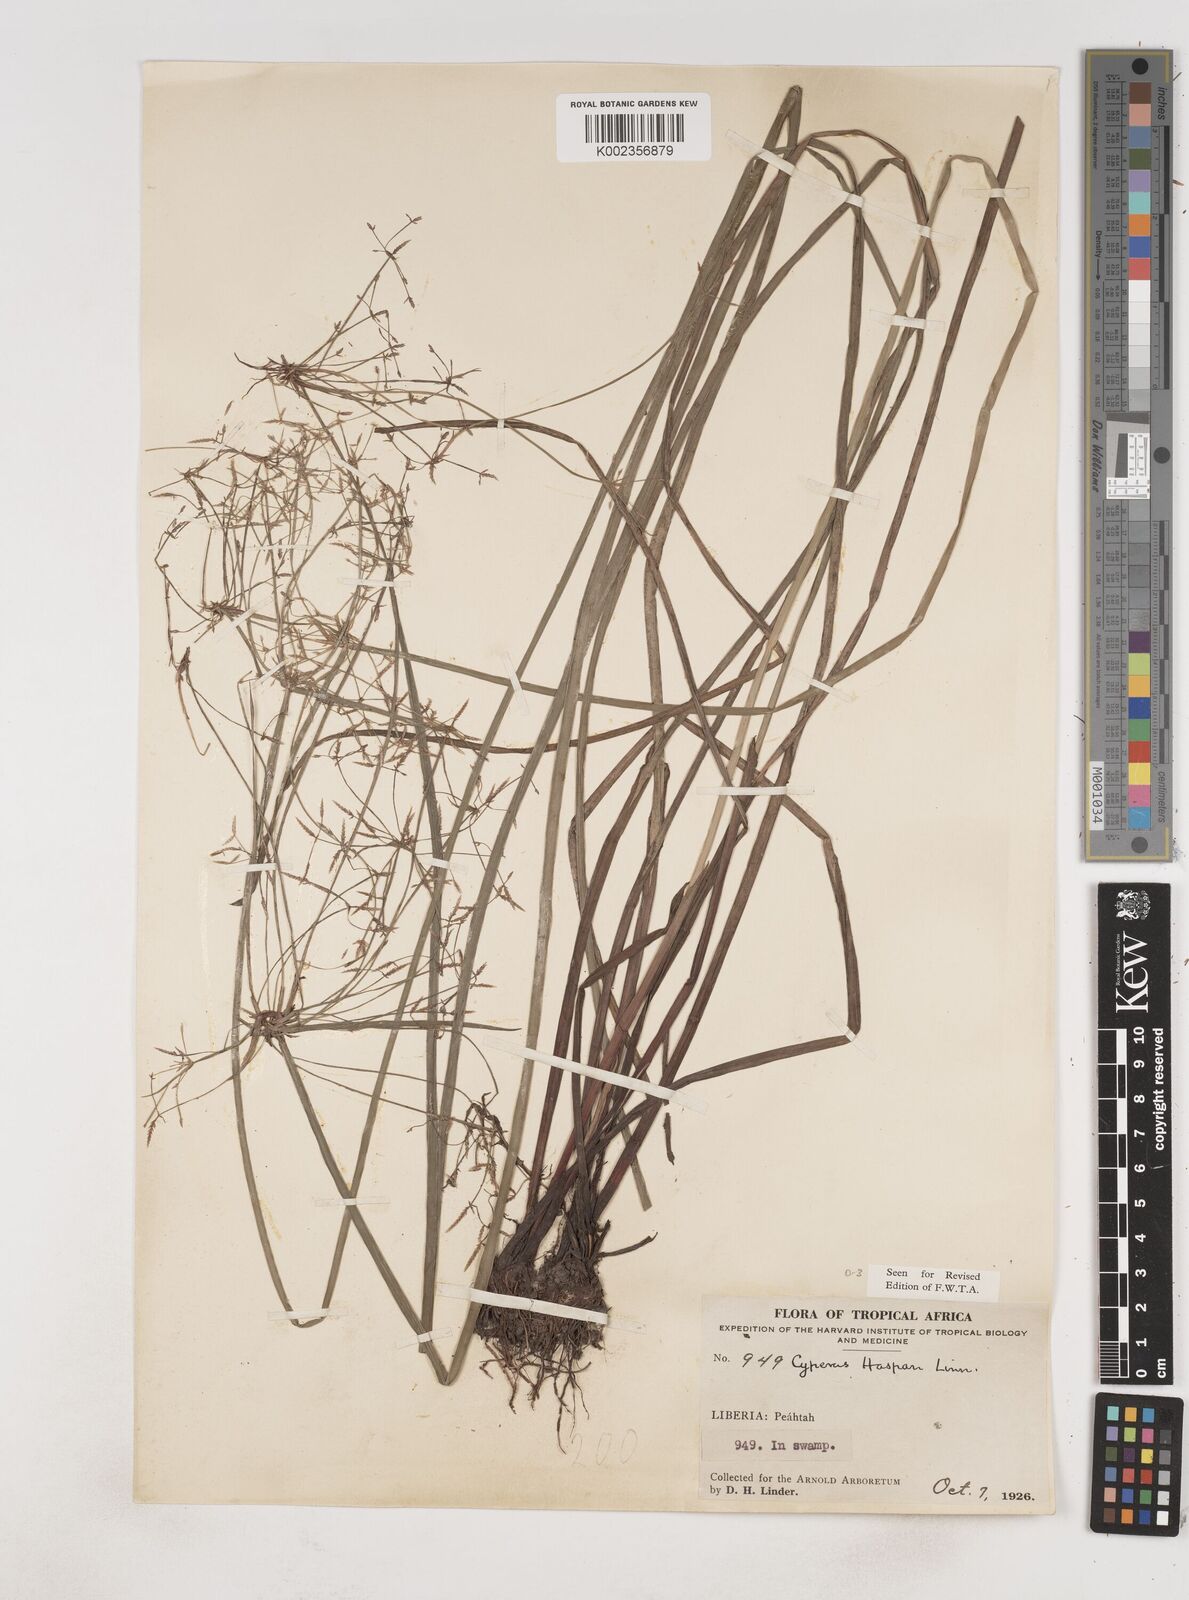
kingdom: Plantae
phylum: Tracheophyta
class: Liliopsida
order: Poales
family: Cyperaceae
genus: Cyperus
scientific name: Cyperus haspan
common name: Haspan flatsedge
